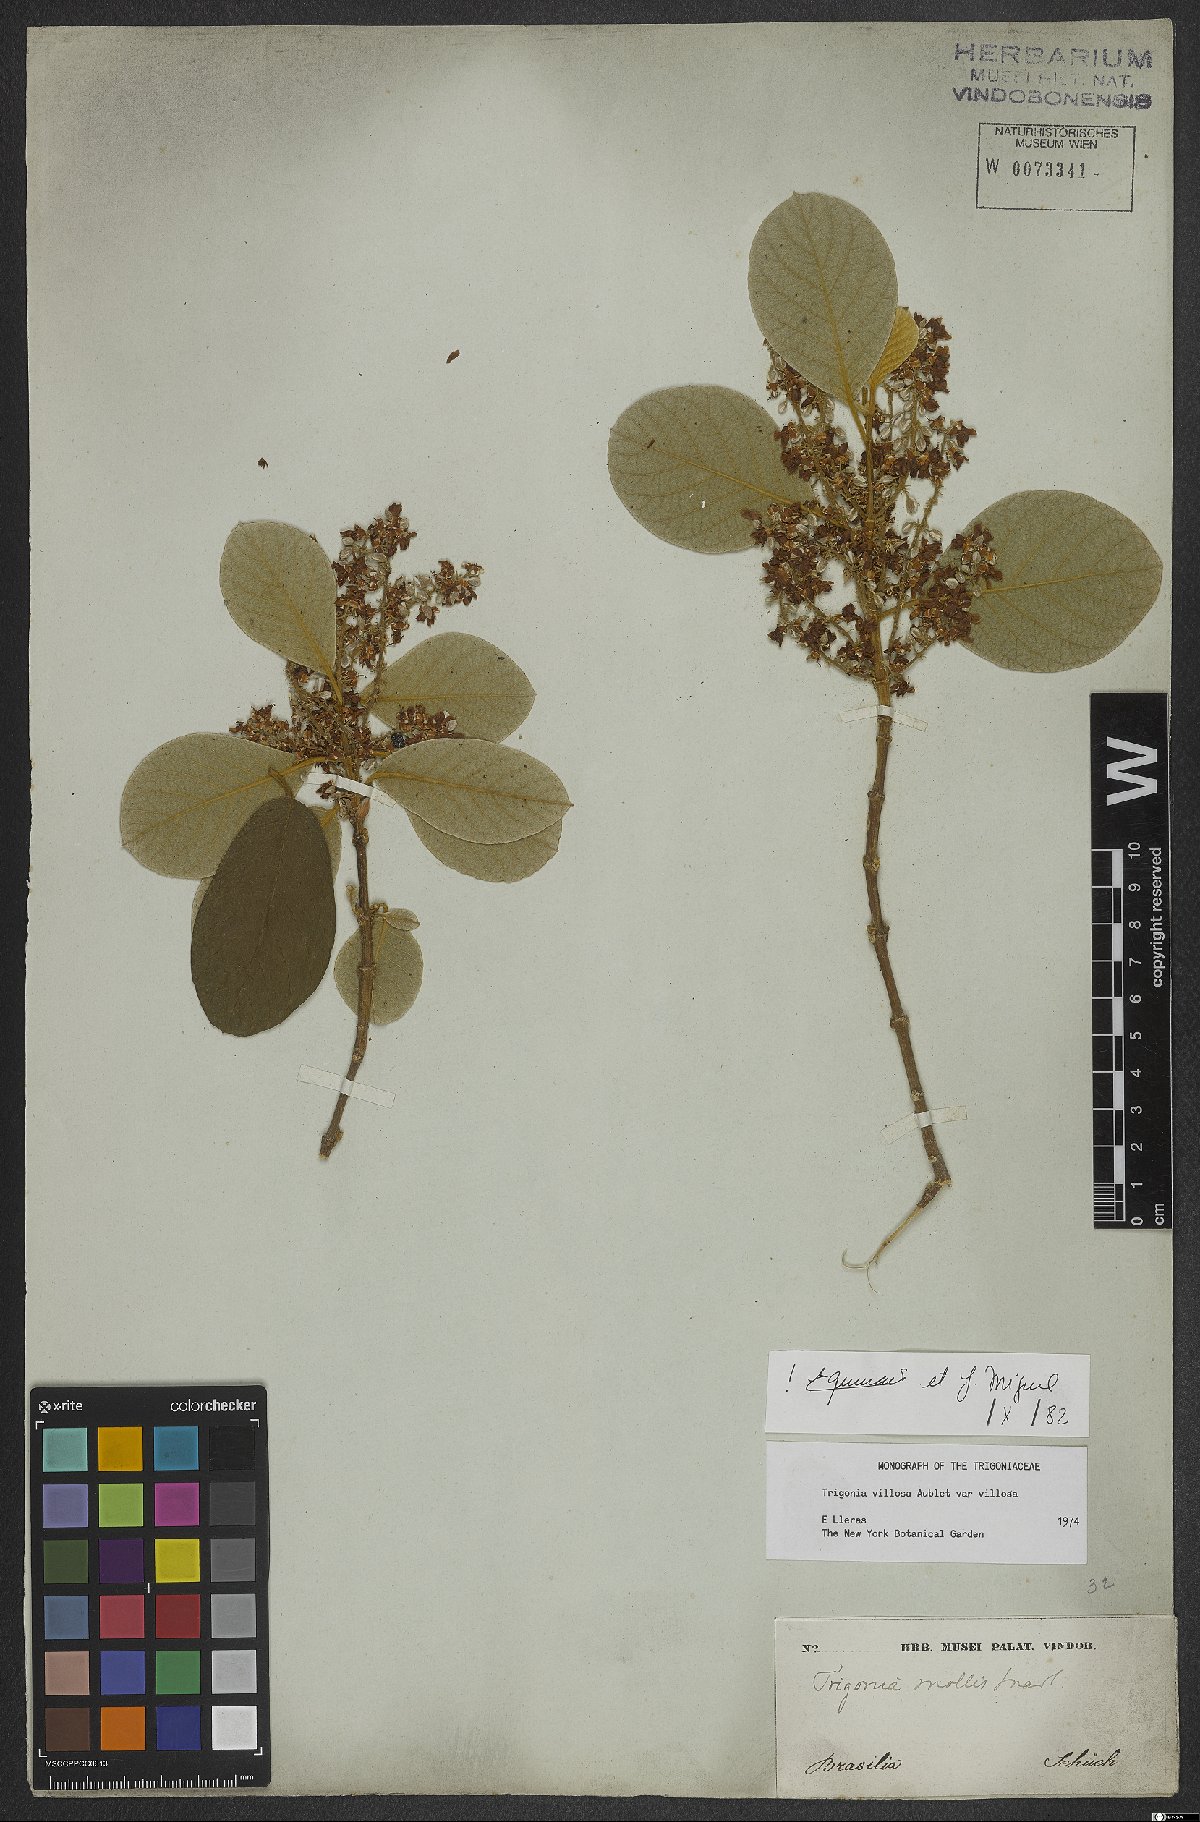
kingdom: Plantae
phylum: Tracheophyta
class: Magnoliopsida
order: Malpighiales
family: Trigoniaceae
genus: Trigonia
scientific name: Trigonia villosa
